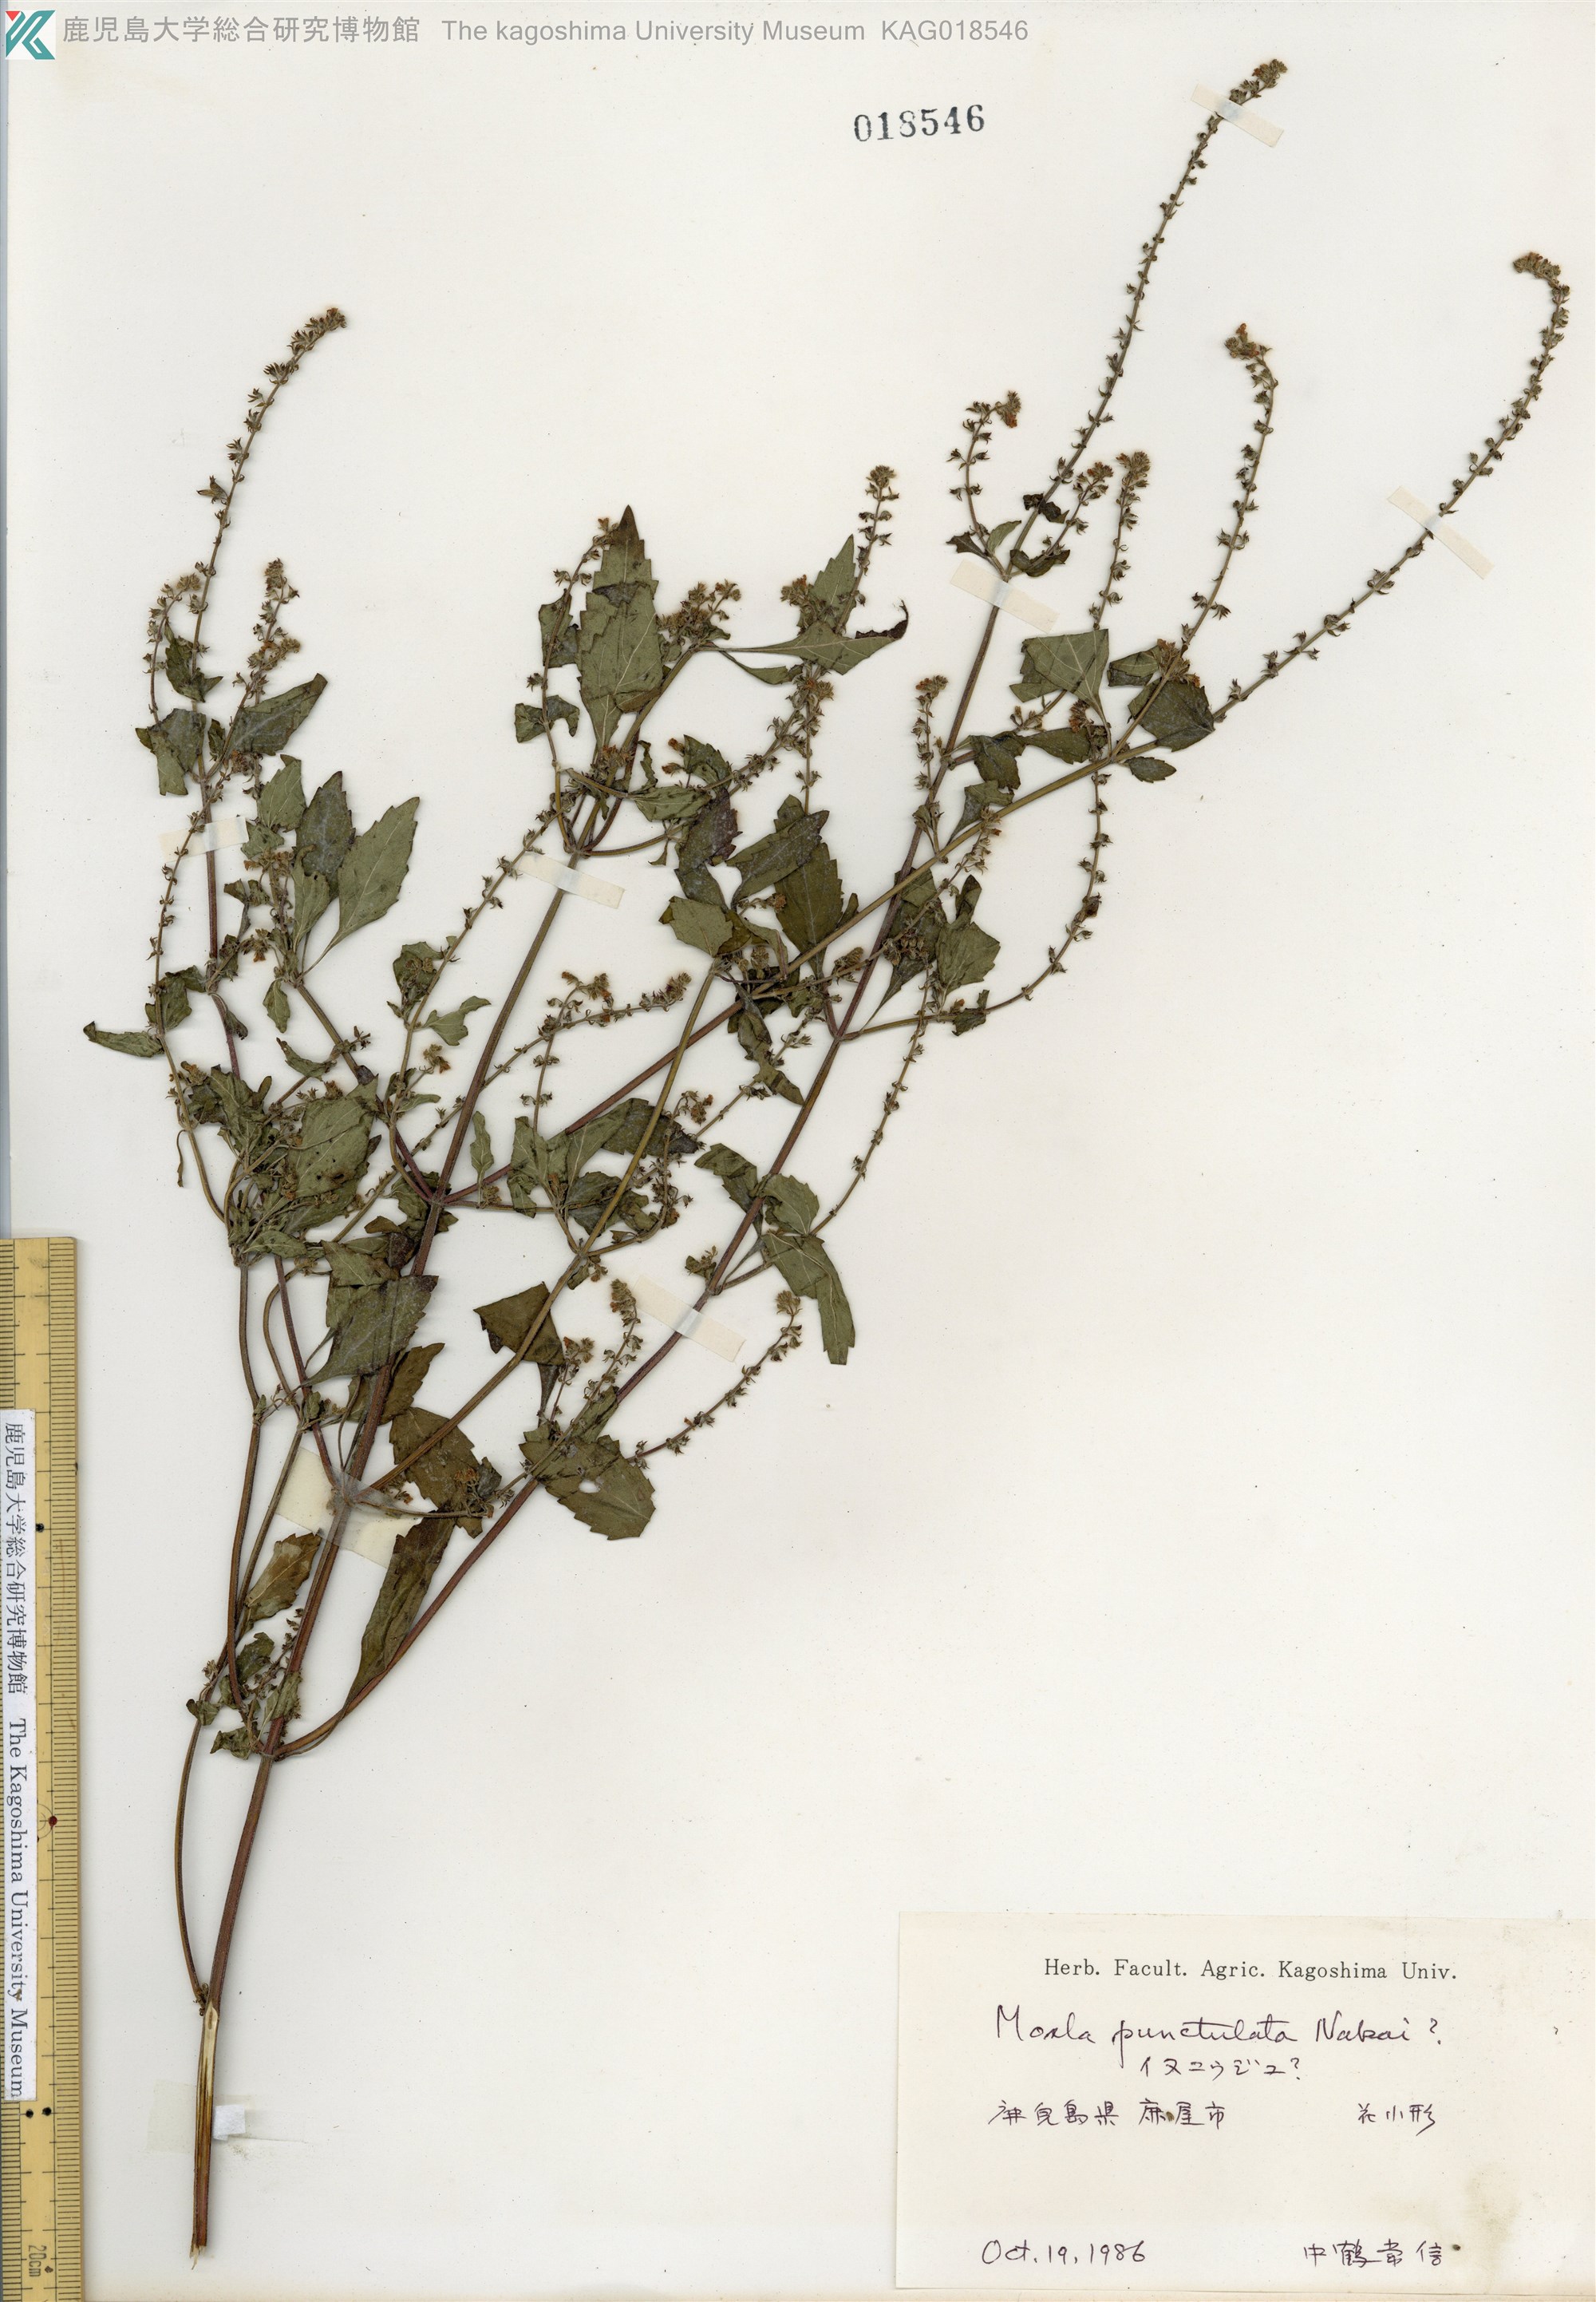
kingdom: Plantae
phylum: Tracheophyta
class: Magnoliopsida
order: Lamiales
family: Lamiaceae
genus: Mosla
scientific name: Mosla scabra
